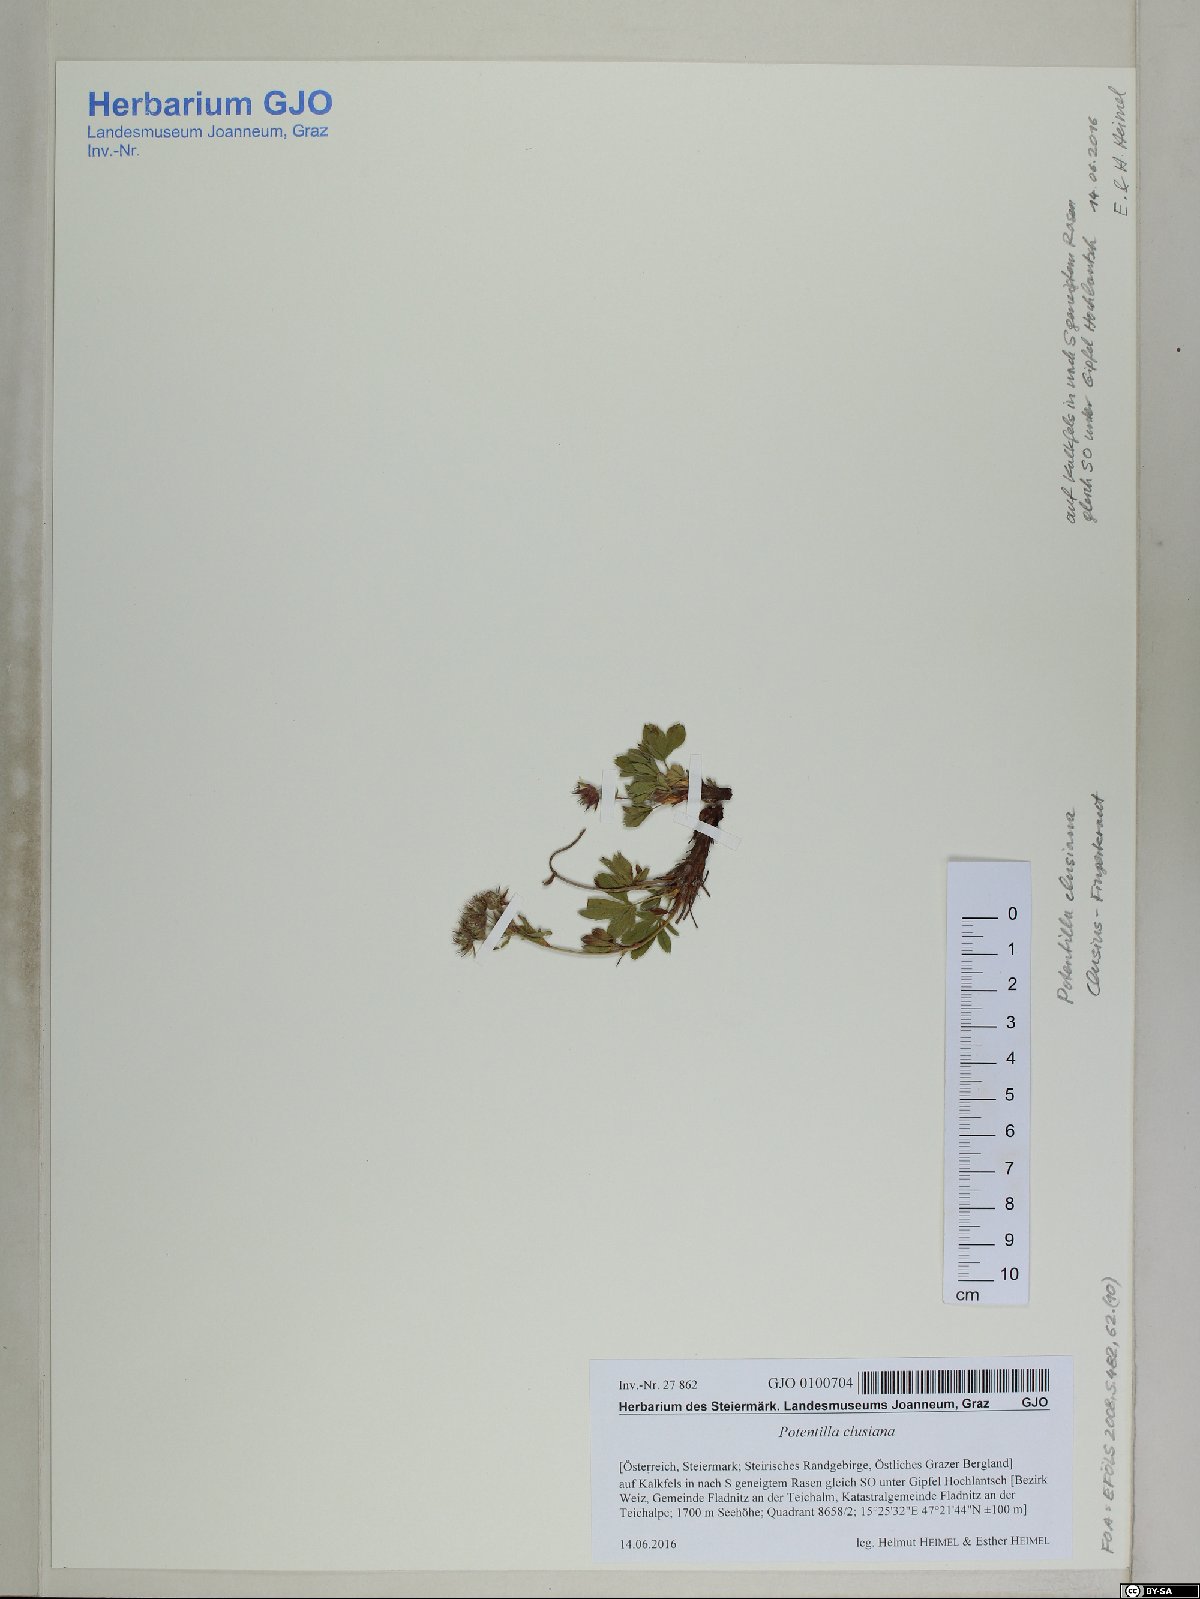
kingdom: Plantae
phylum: Tracheophyta
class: Magnoliopsida
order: Rosales
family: Rosaceae
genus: Potentilla
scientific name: Potentilla clusiana
